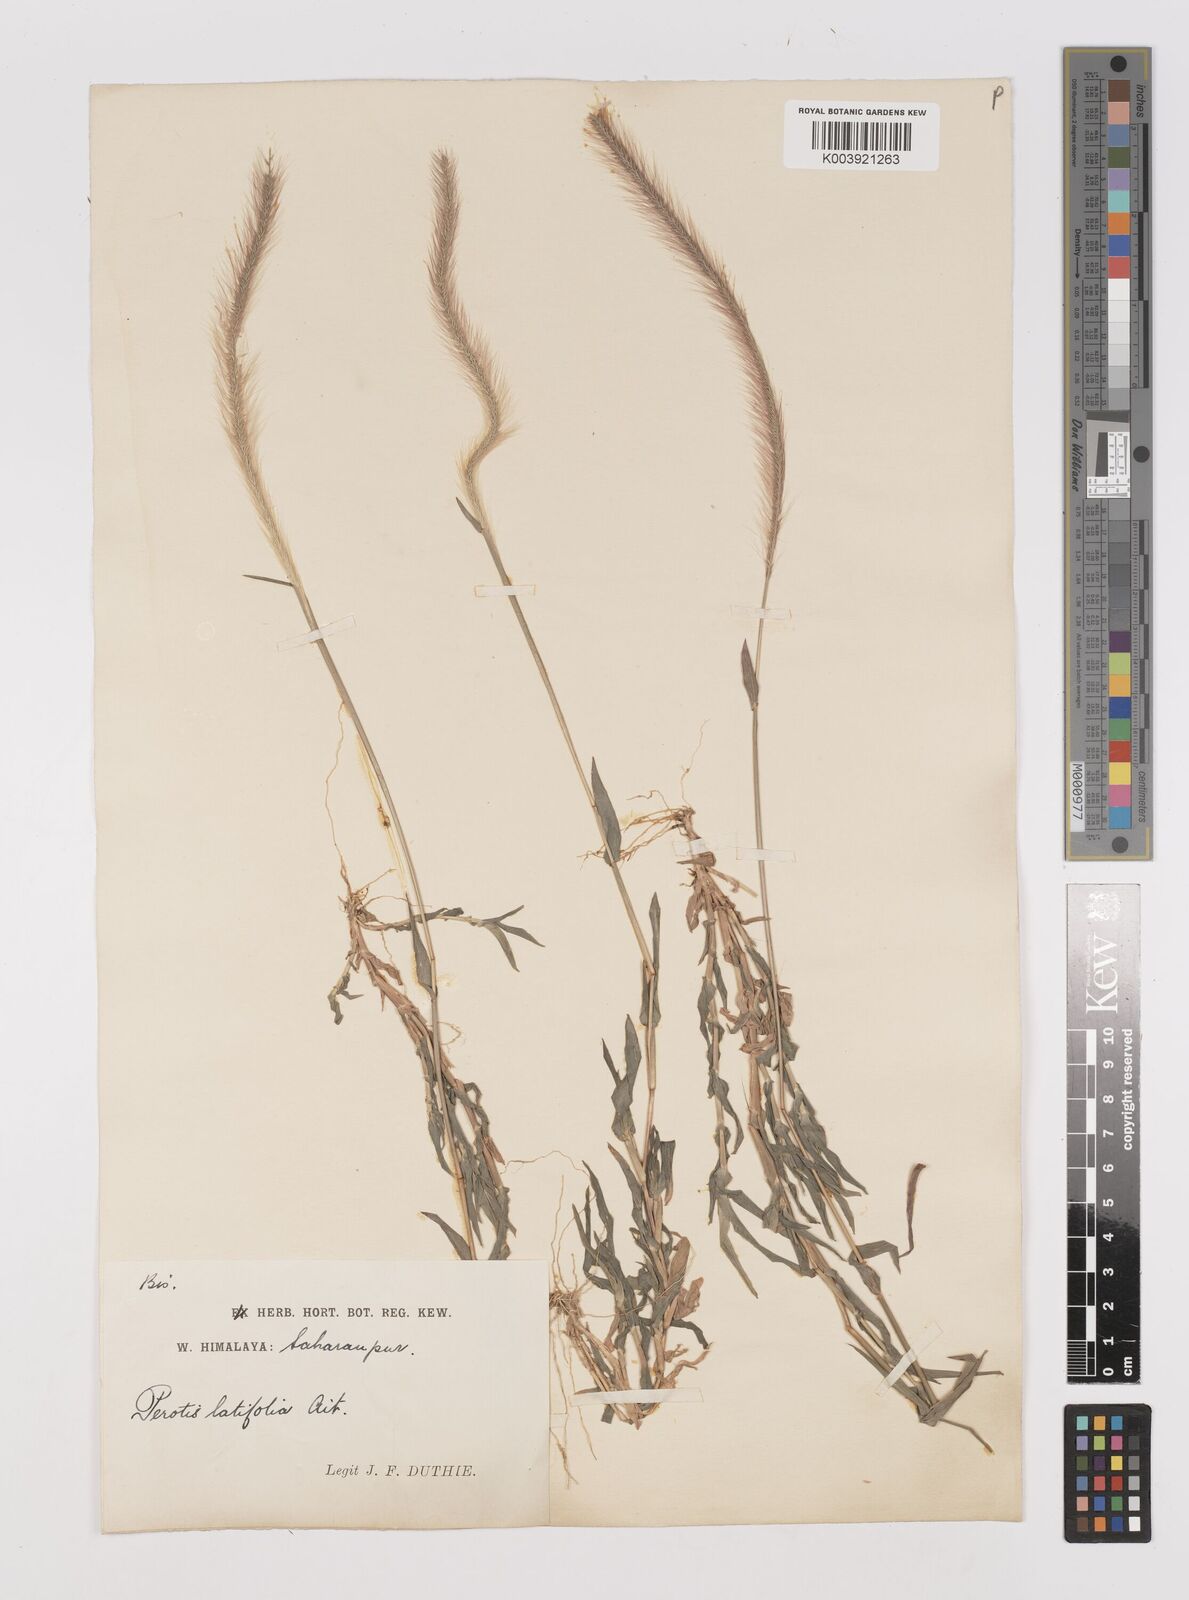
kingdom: Plantae
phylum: Tracheophyta
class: Liliopsida
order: Poales
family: Poaceae
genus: Perotis
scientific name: Perotis hordeiformis
